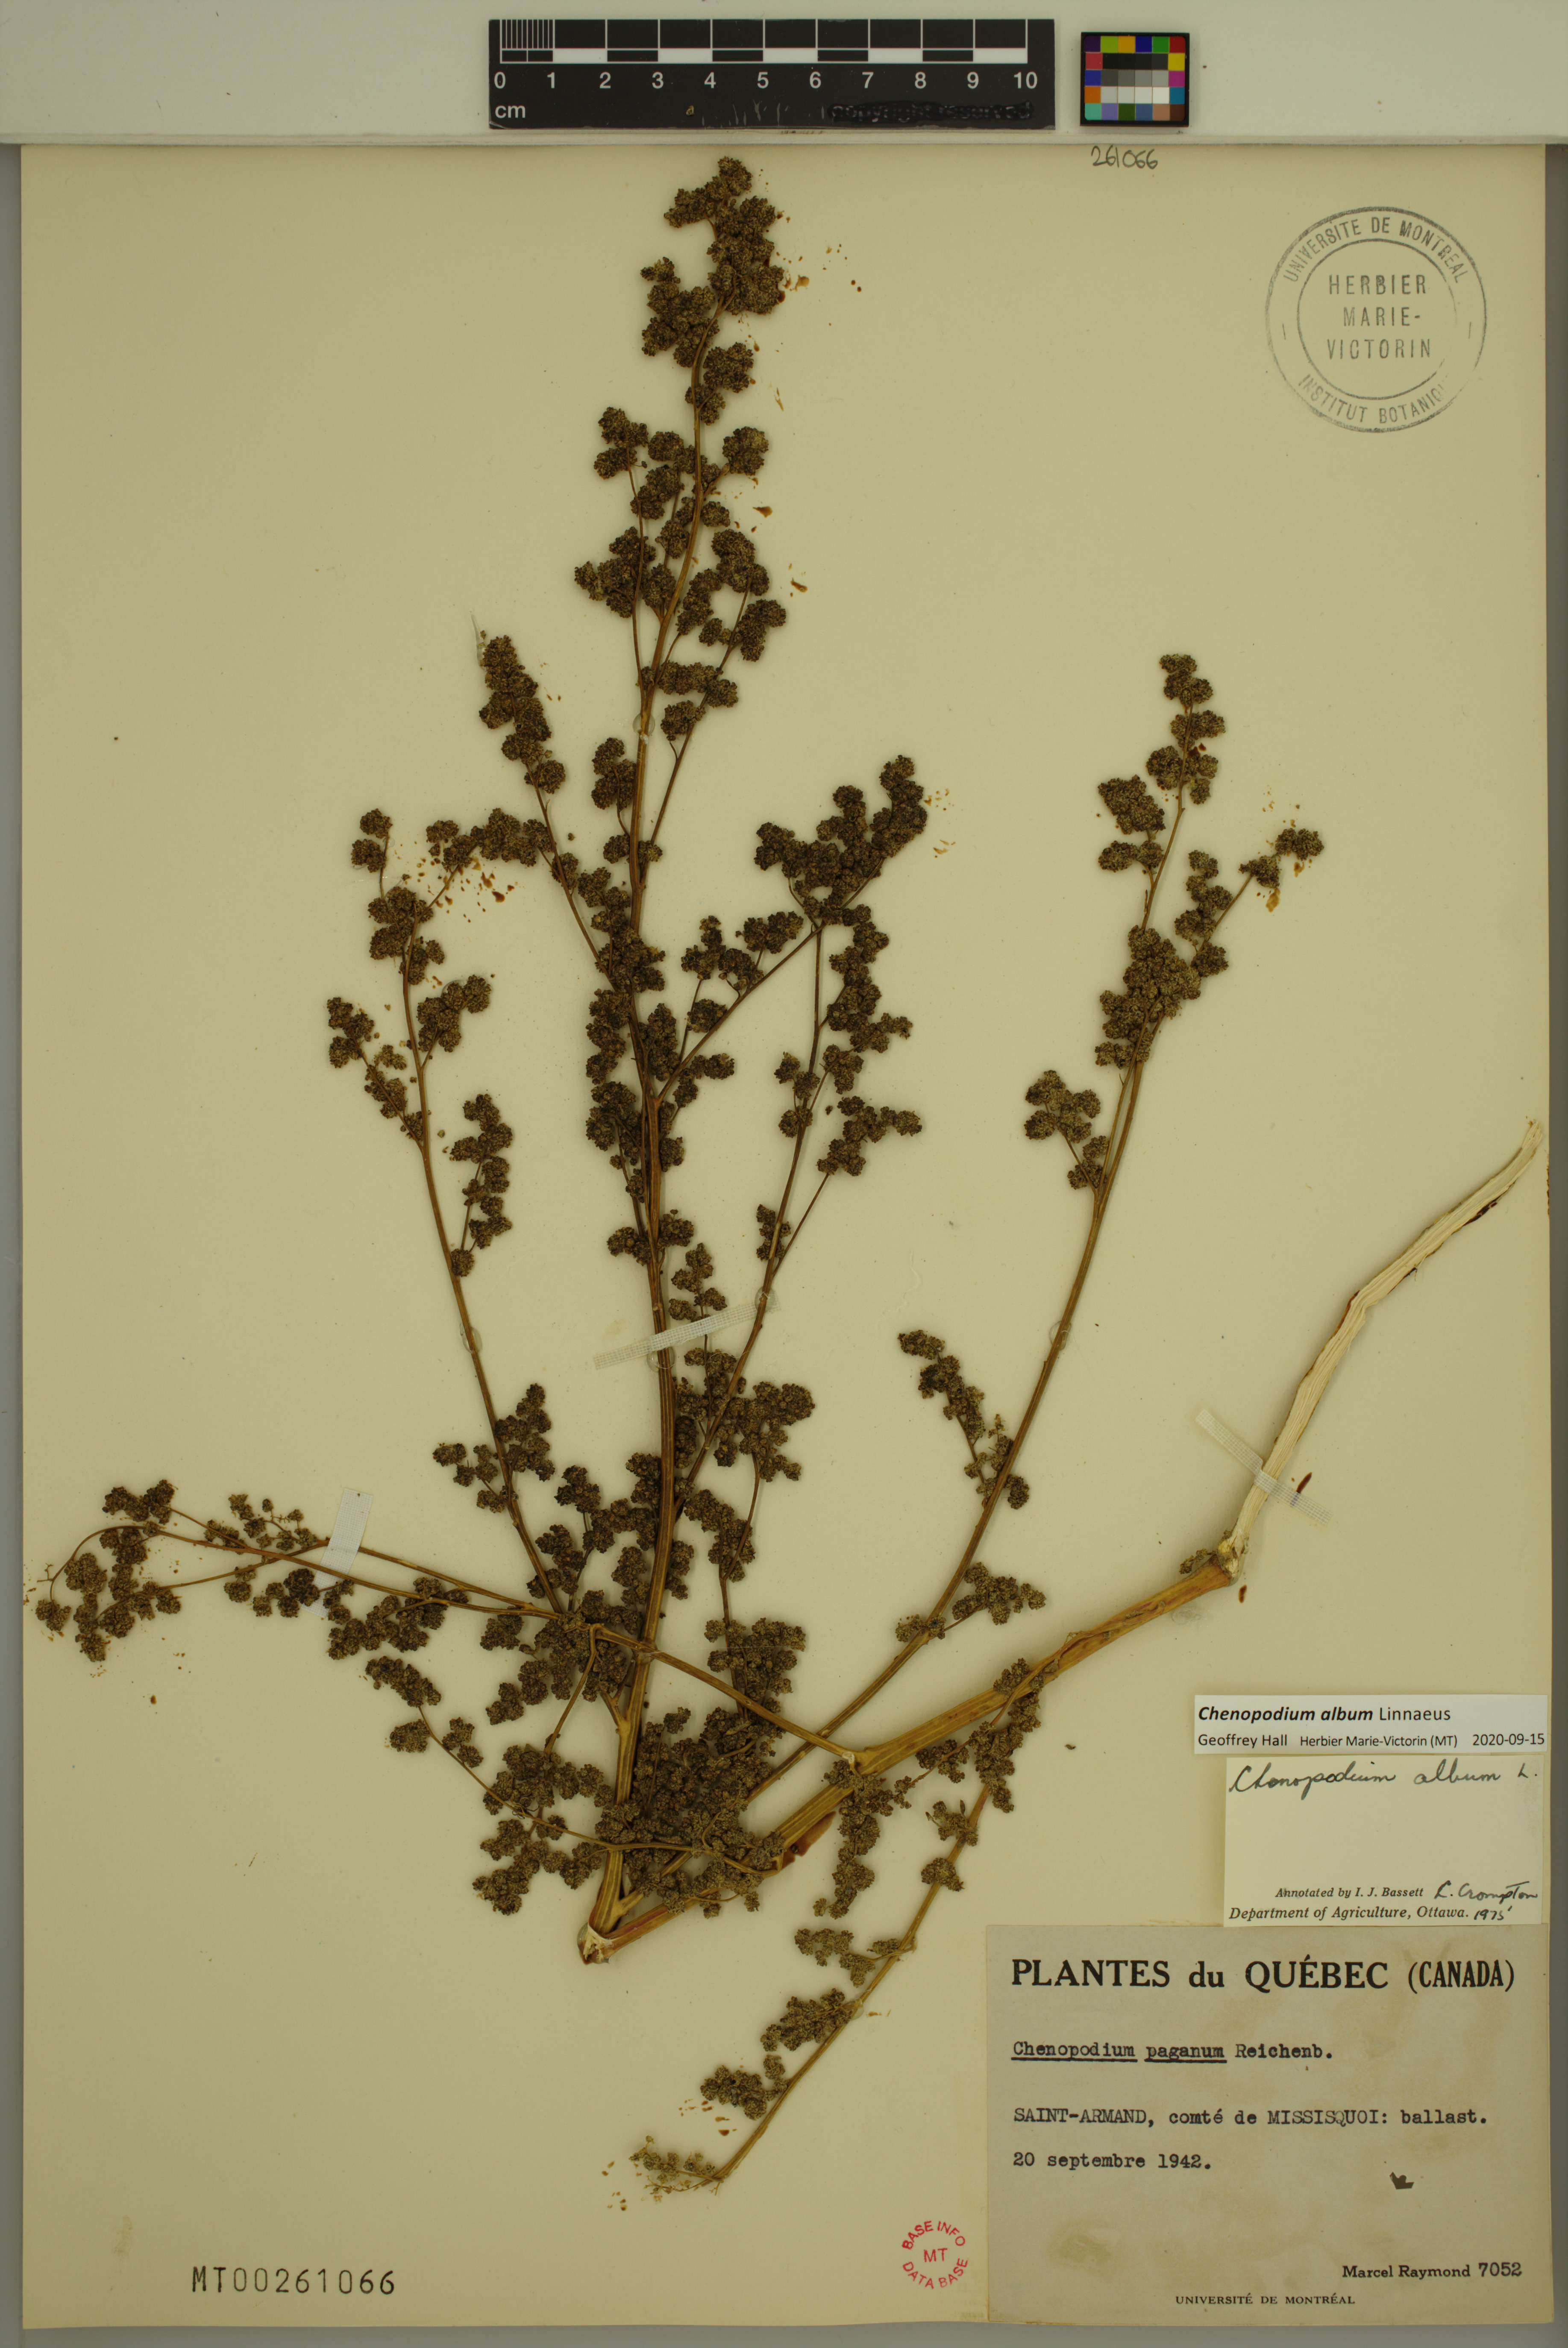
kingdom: Plantae
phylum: Tracheophyta
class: Magnoliopsida
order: Caryophyllales
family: Amaranthaceae
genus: Chenopodium
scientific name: Chenopodium album
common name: Fat-hen
